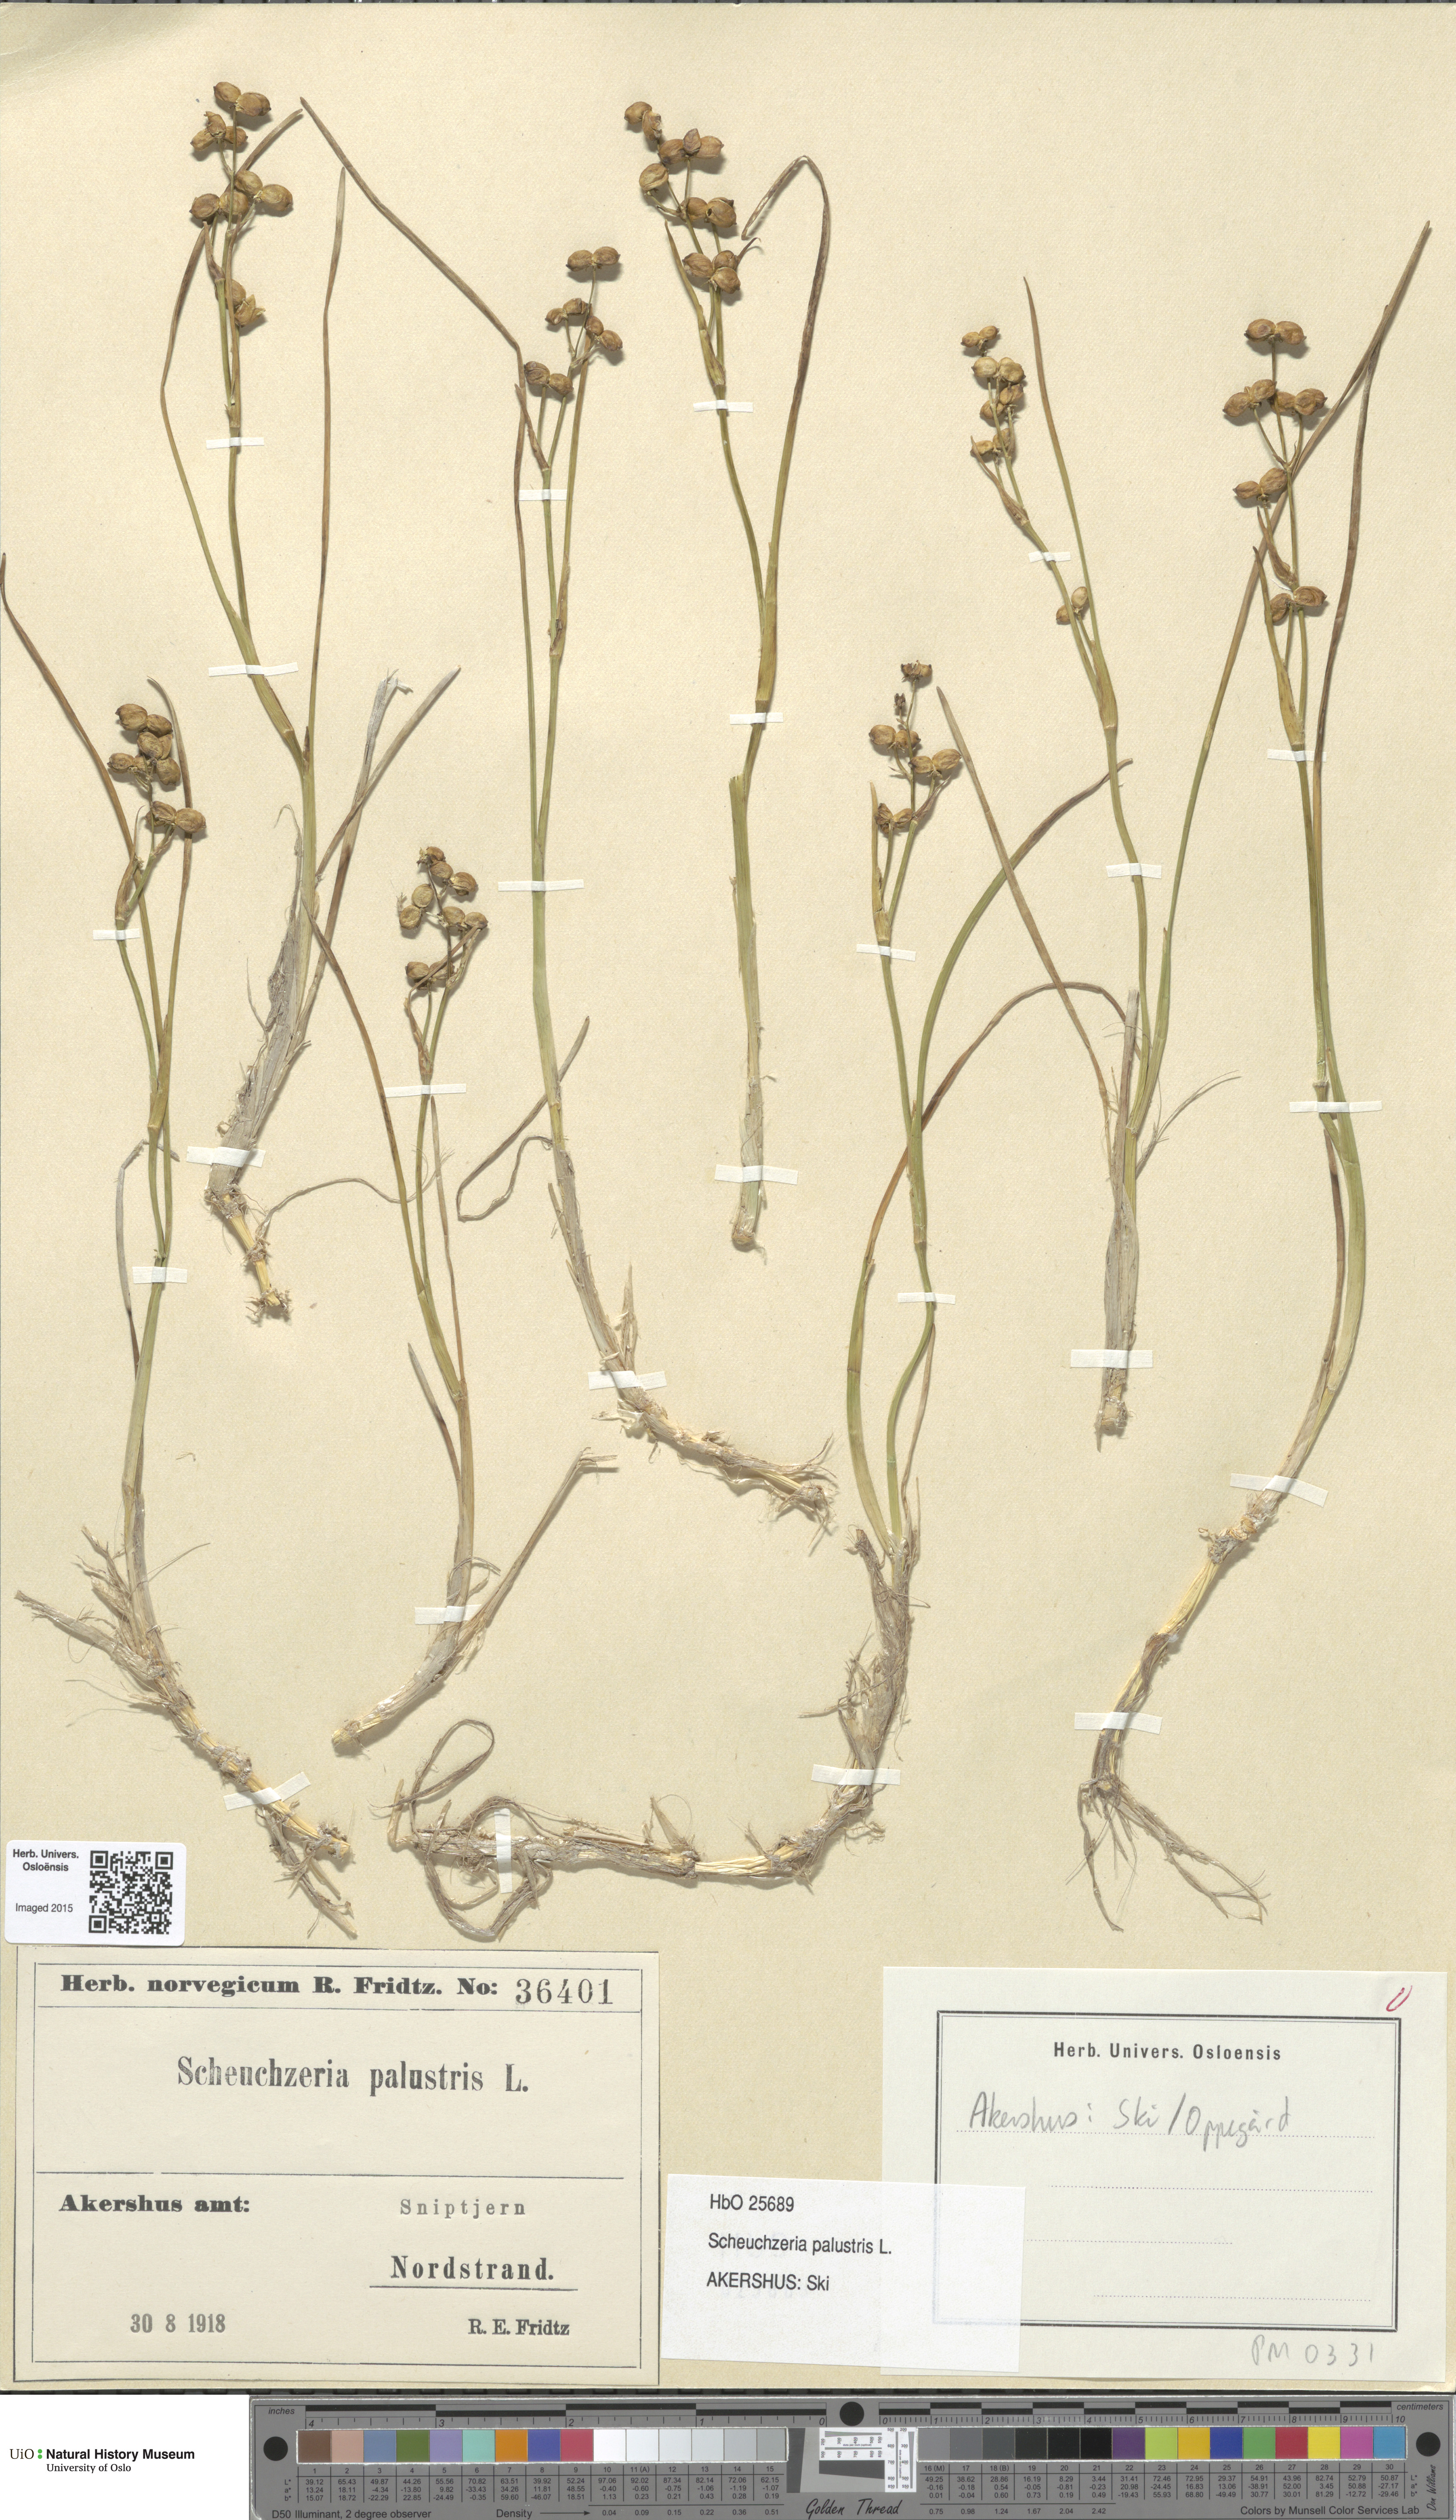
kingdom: Plantae
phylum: Tracheophyta
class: Liliopsida
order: Alismatales
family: Scheuchzeriaceae
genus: Scheuchzeria
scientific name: Scheuchzeria palustris
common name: Rannoch-rush
